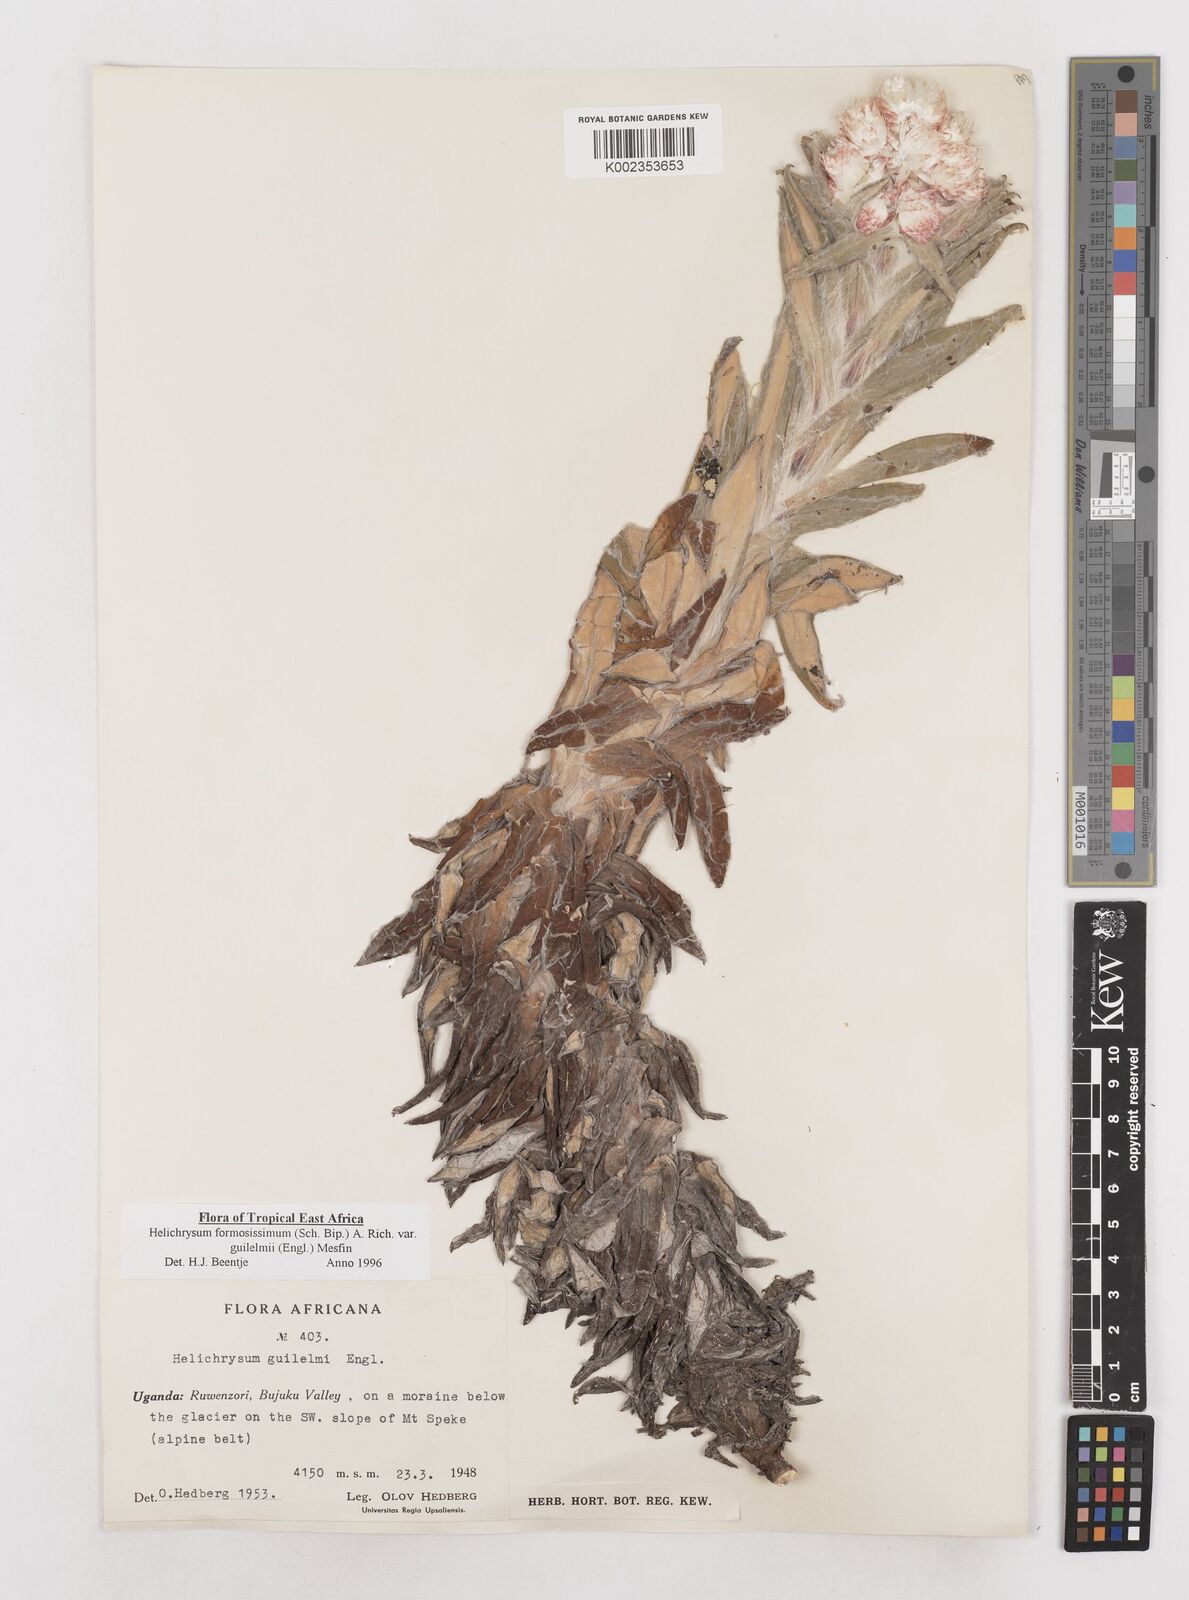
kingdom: Plantae
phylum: Tracheophyta
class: Magnoliopsida
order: Asterales
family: Asteraceae
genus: Helichrysum
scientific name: Helichrysum formosissimum
